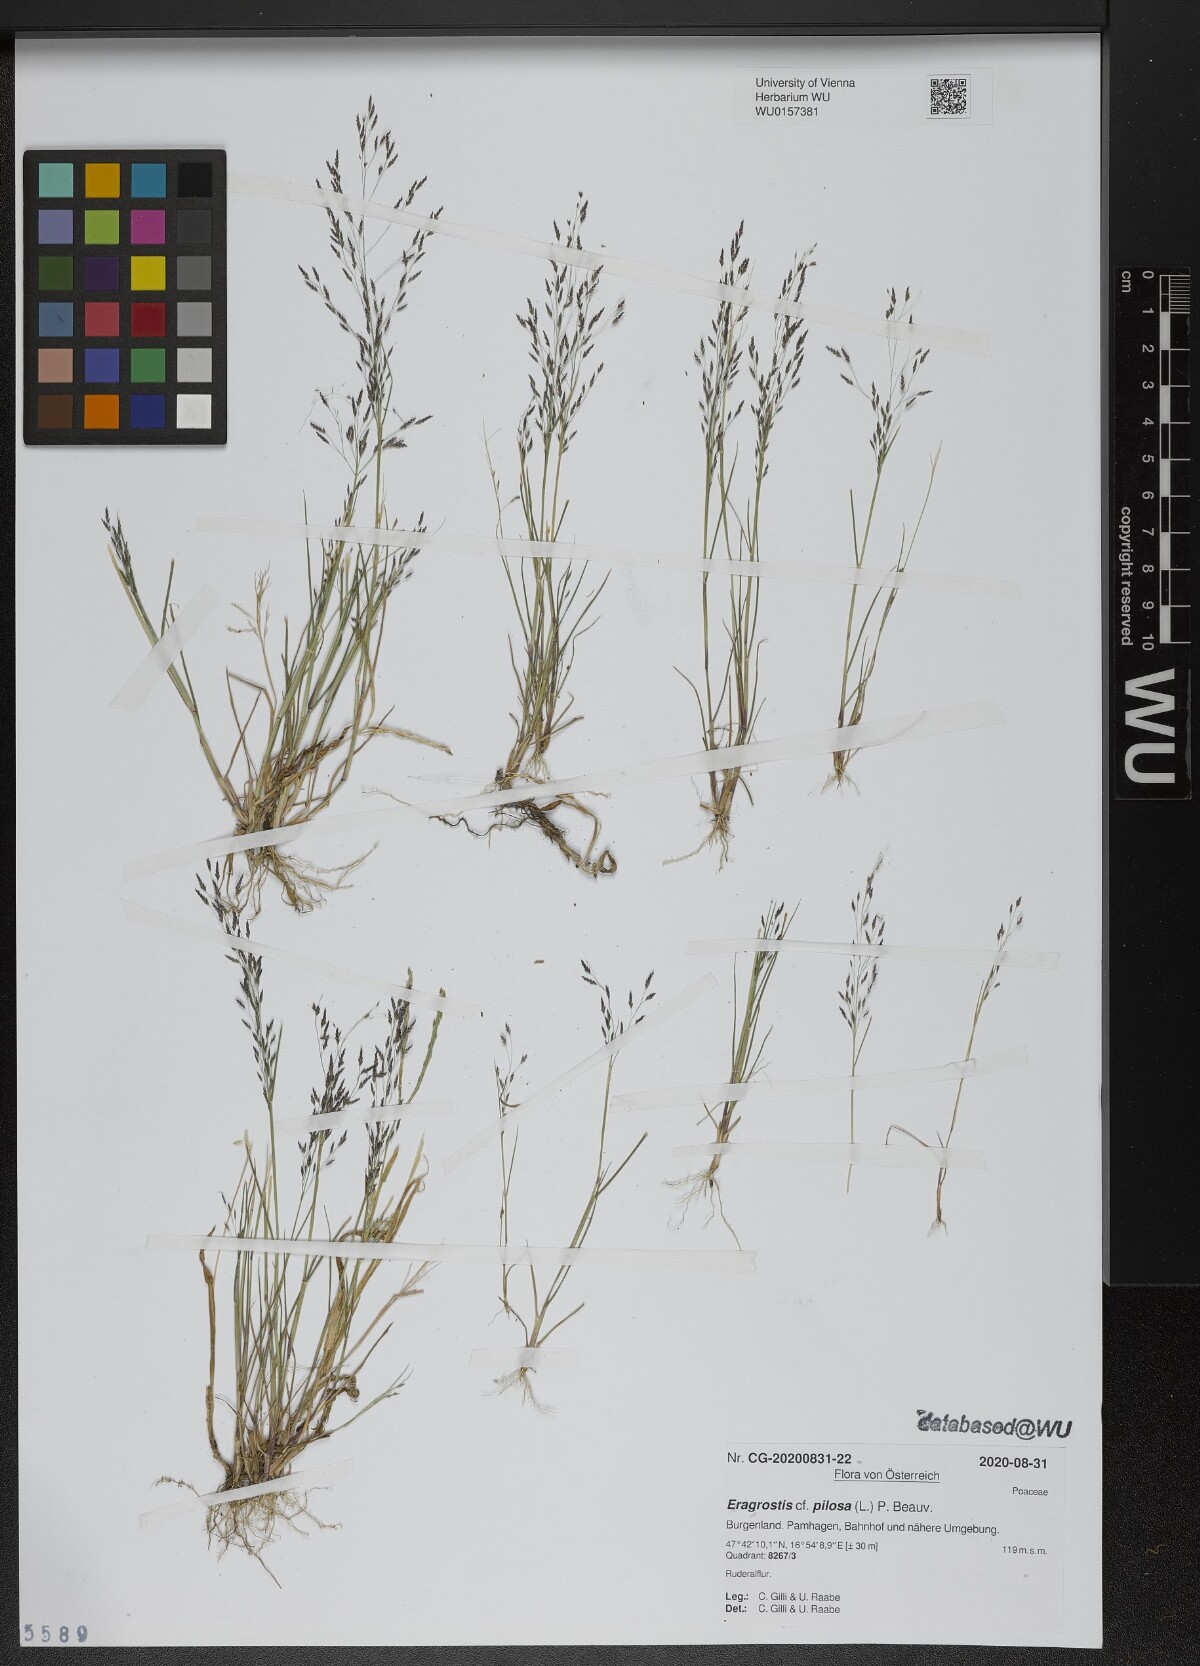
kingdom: Plantae
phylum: Tracheophyta
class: Liliopsida
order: Poales
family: Poaceae
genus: Eragrostis
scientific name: Eragrostis pilosa
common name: Indian lovegrass
